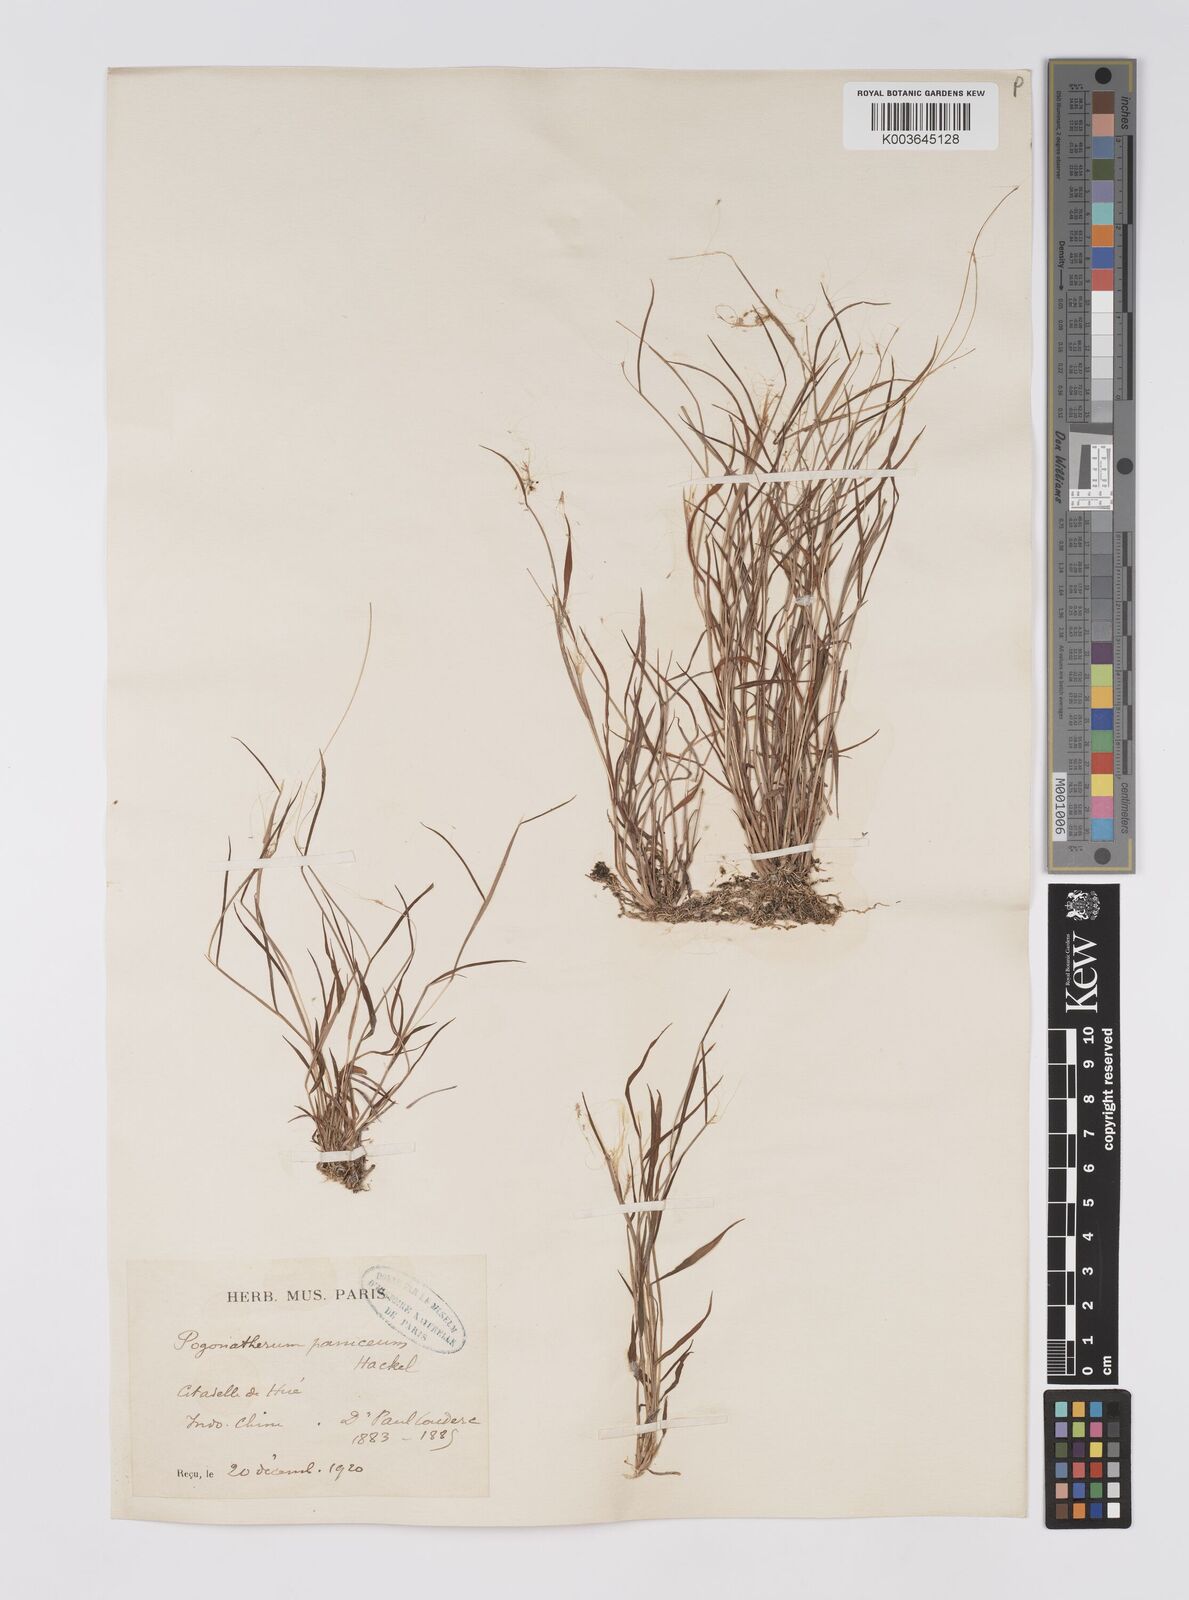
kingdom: Plantae
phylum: Tracheophyta
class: Liliopsida
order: Poales
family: Poaceae
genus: Pogonatherum
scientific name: Pogonatherum crinitum
